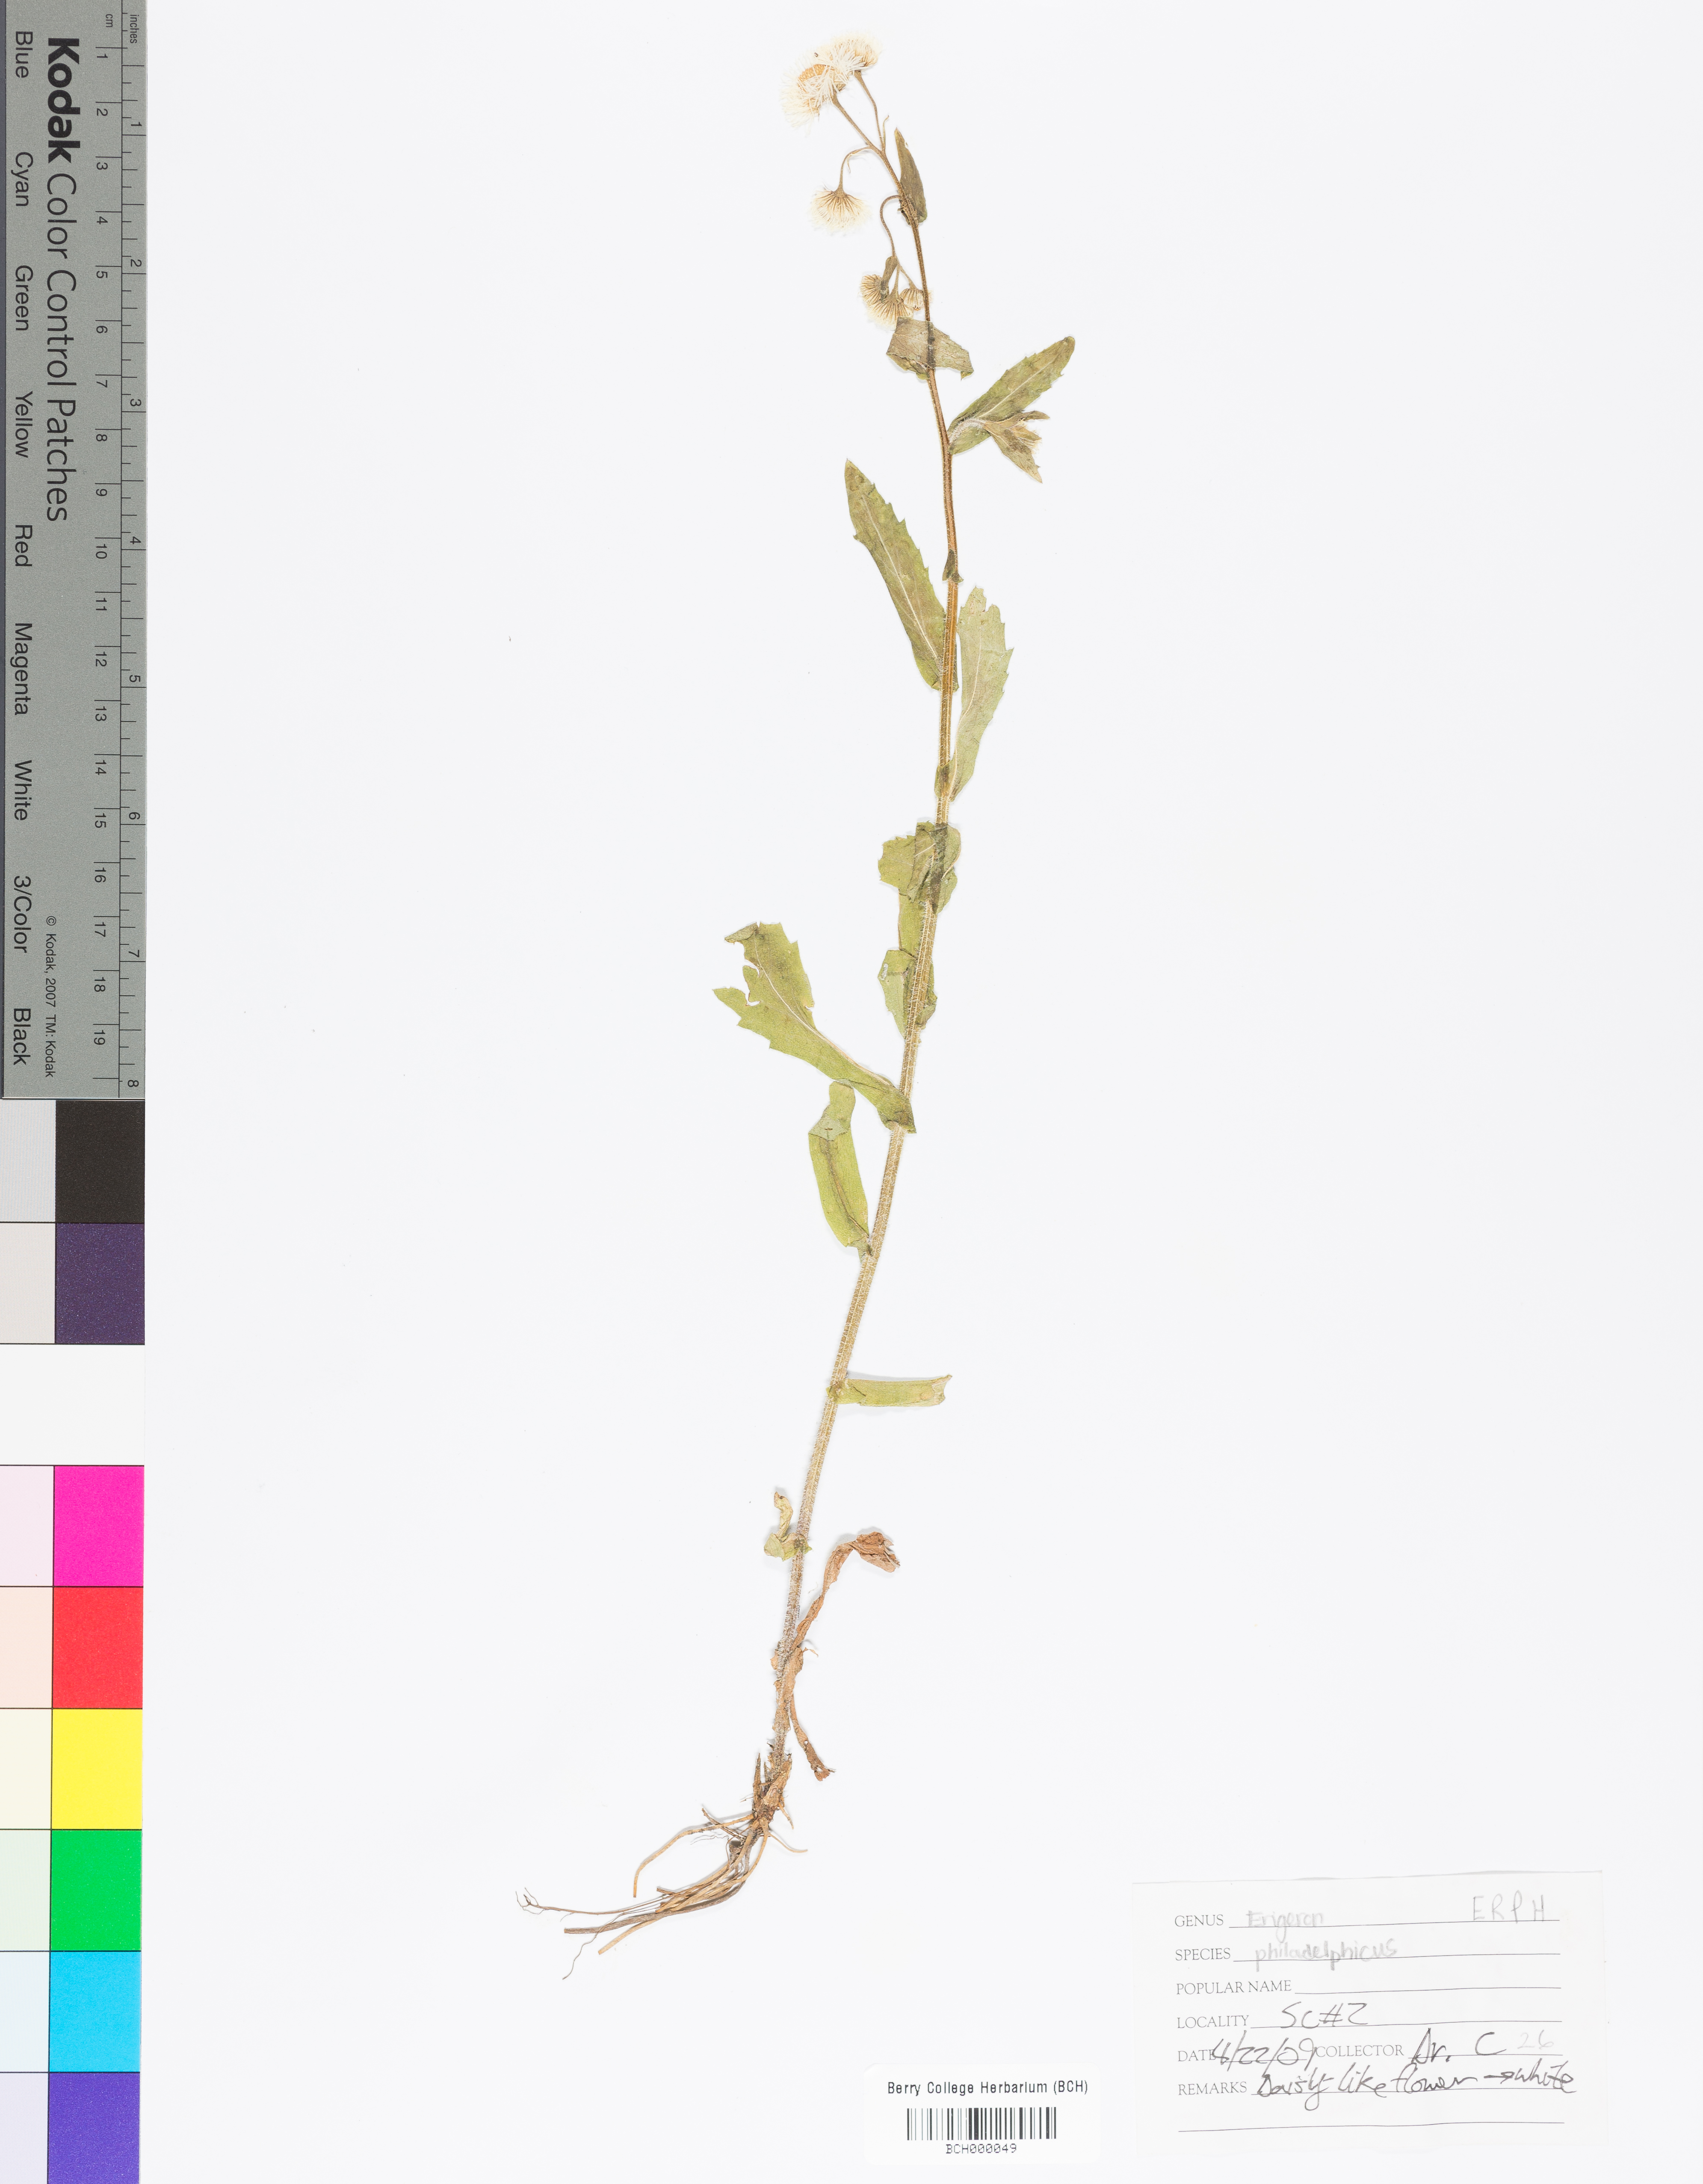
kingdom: Plantae
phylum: Tracheophyta
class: Magnoliopsida
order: Asterales
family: Asteraceae
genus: Erigeron
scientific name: Erigeron philadelphicus
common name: Robin's-plantain
